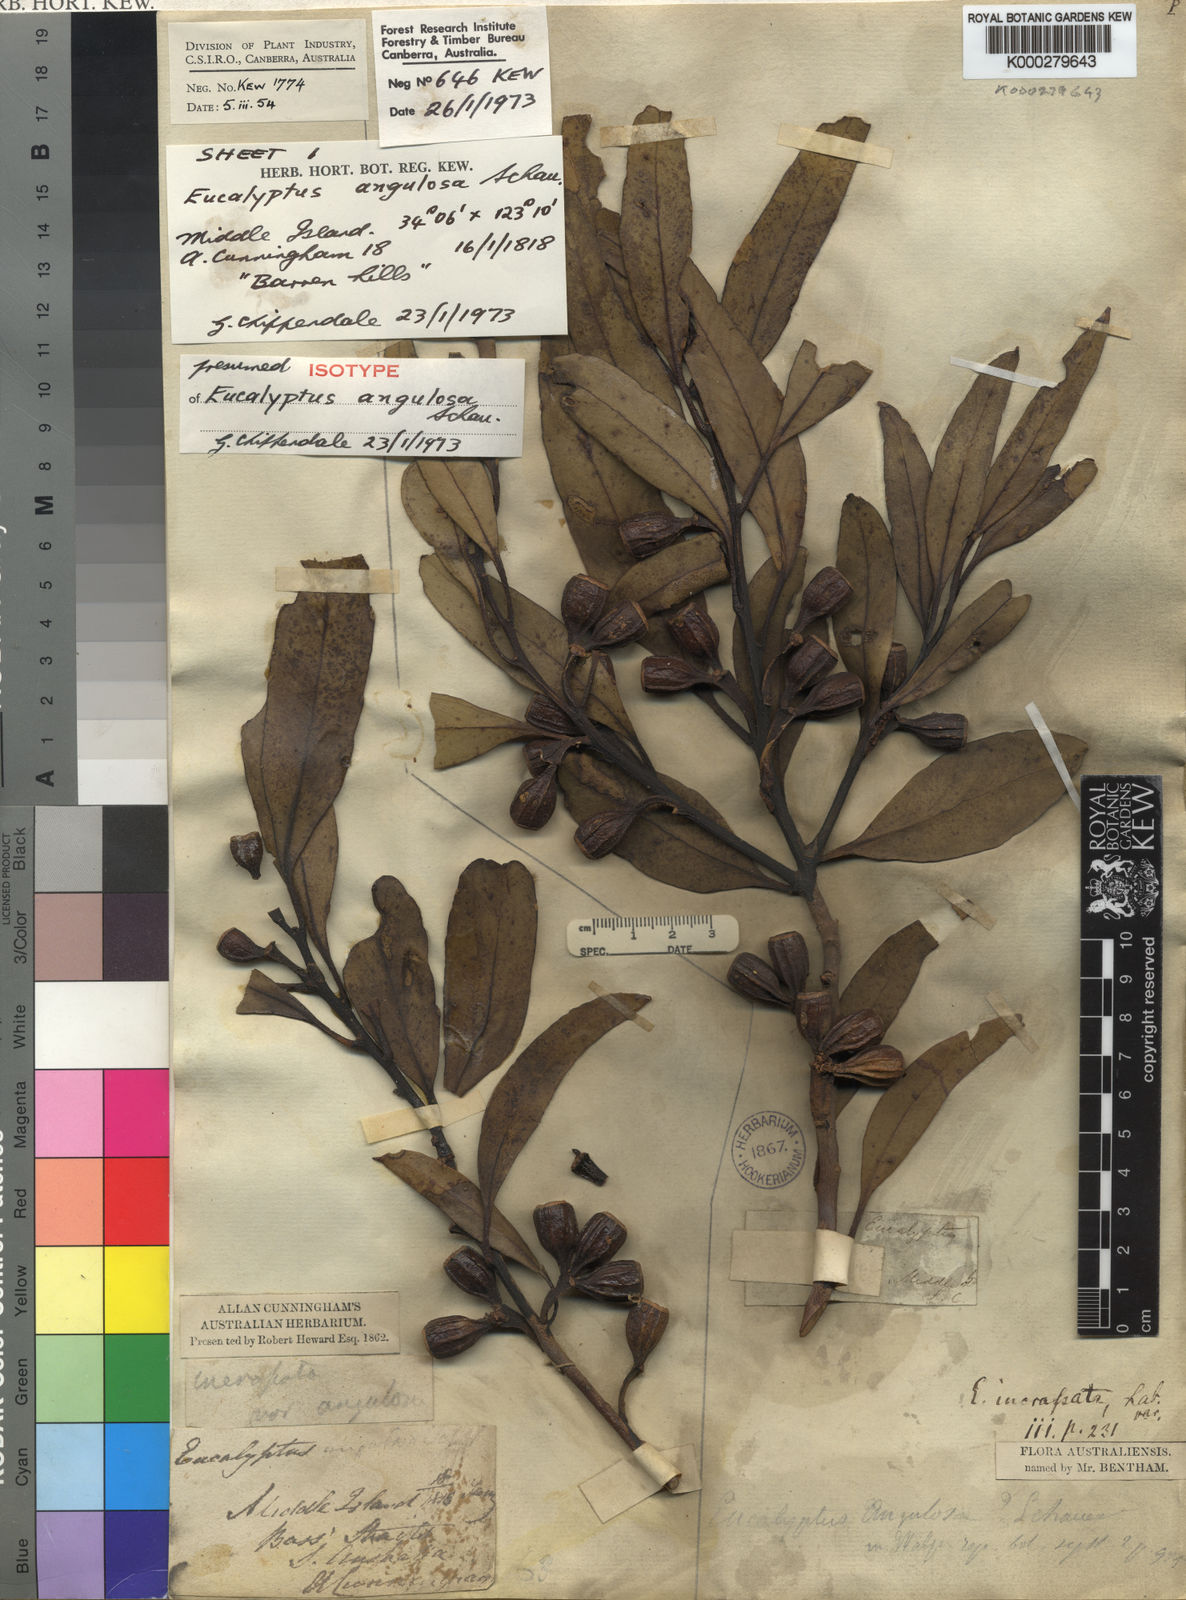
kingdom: Plantae
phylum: Tracheophyta
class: Magnoliopsida
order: Myrtales
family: Myrtaceae
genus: Eucalyptus
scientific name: Eucalyptus angulosa
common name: Ridge-fruited mallee
